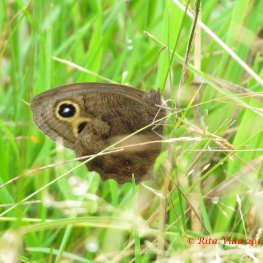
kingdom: Animalia
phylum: Arthropoda
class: Insecta
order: Lepidoptera
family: Nymphalidae
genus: Cercyonis
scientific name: Cercyonis pegala
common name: Common Wood-Nymph
